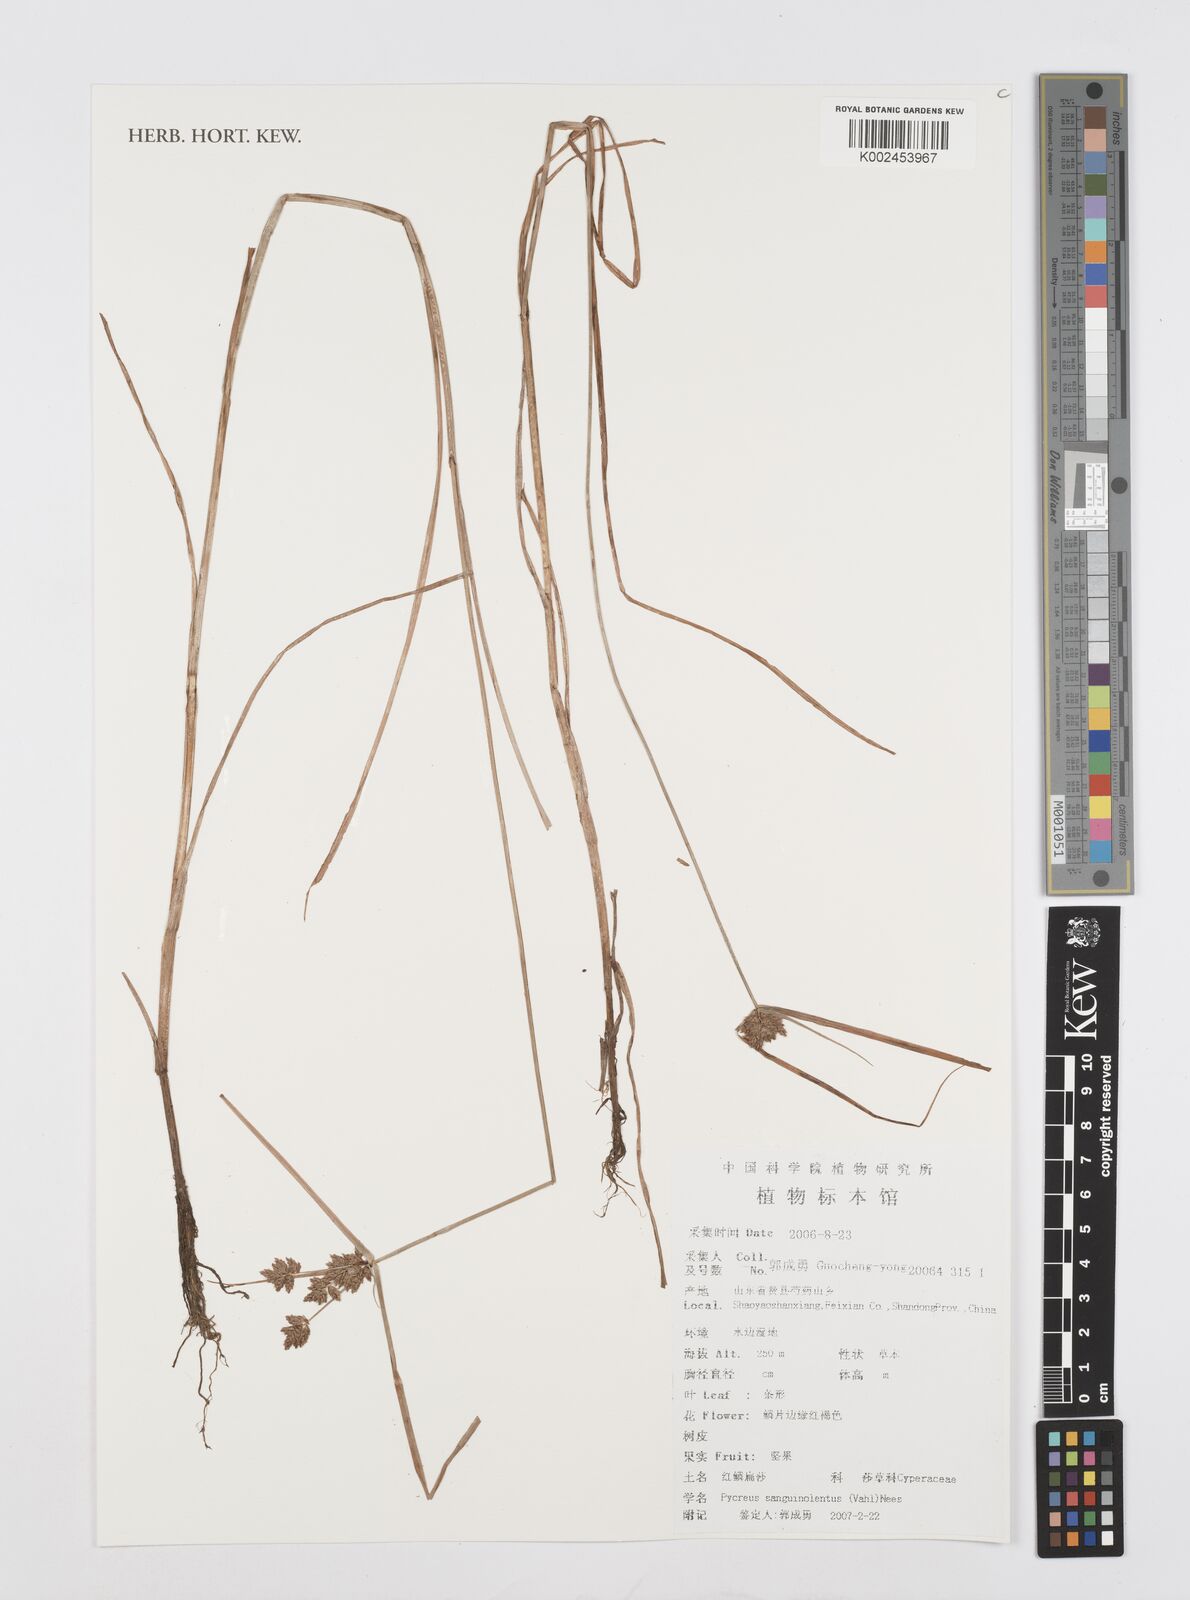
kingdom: Plantae
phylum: Tracheophyta
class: Liliopsida
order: Poales
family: Cyperaceae
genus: Cyperus
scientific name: Cyperus sanguinolentus
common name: Purpleglume flatsedge
